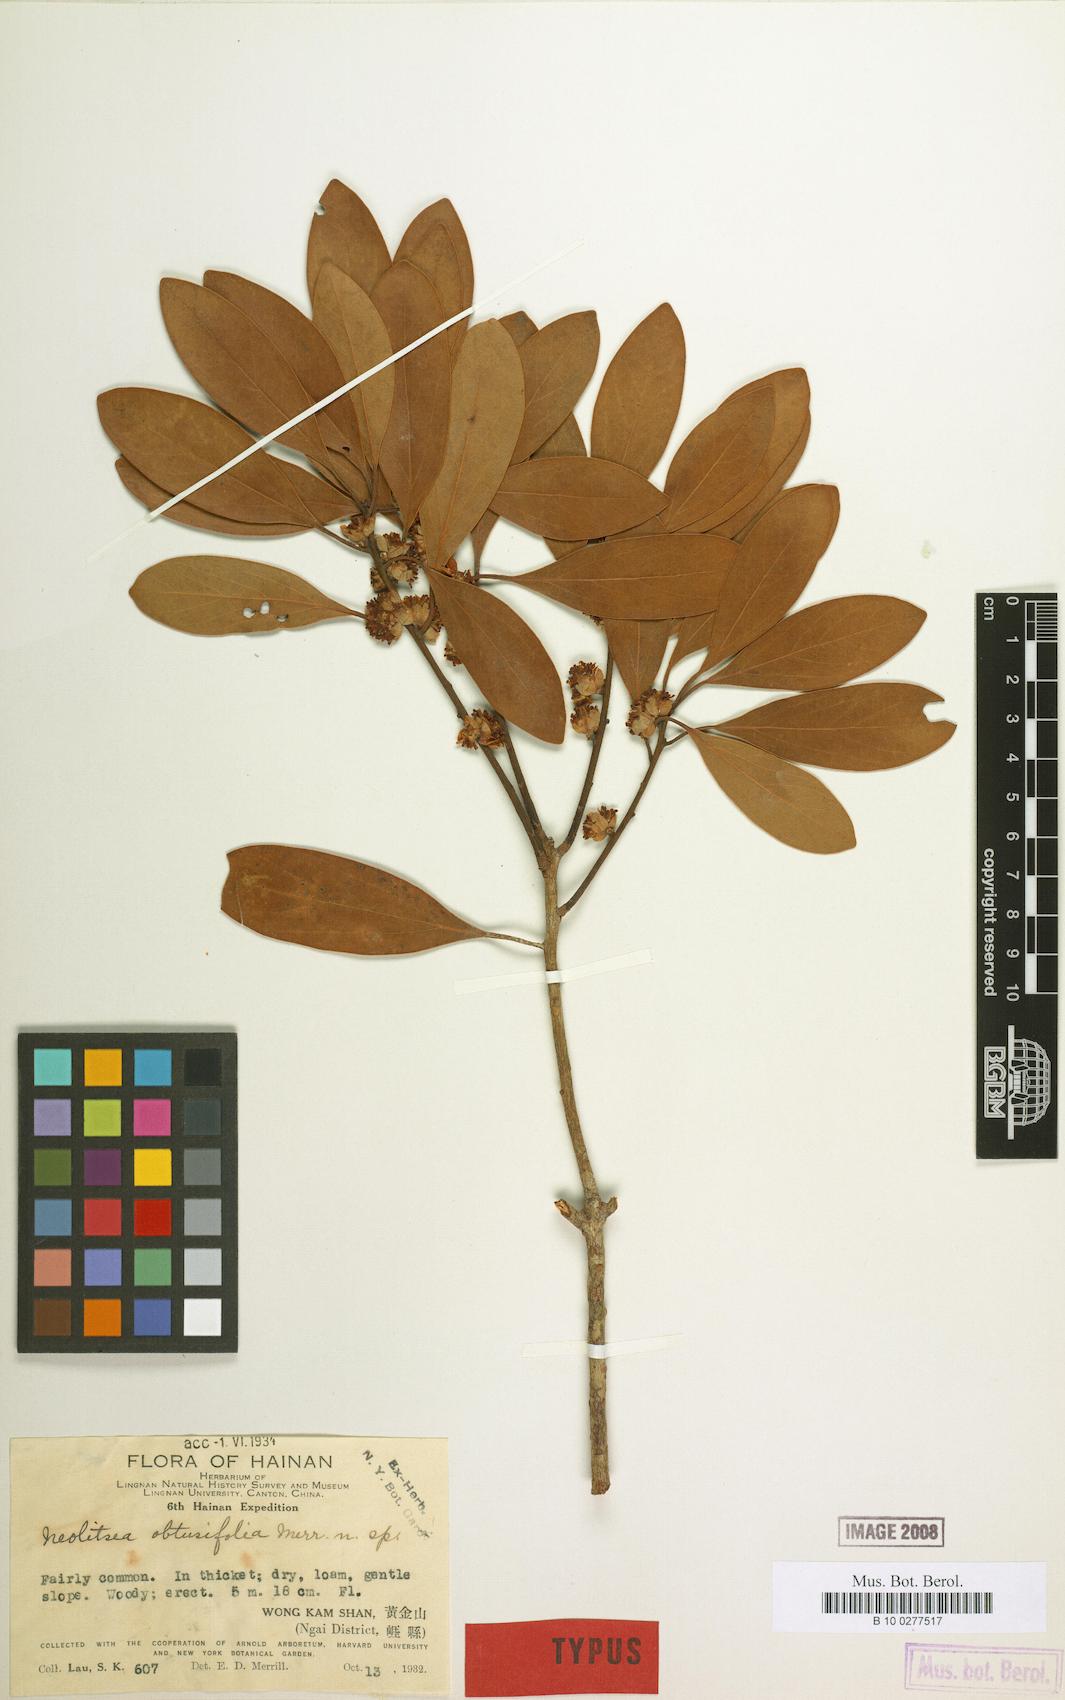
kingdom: Plantae
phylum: Tracheophyta
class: Magnoliopsida
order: Laurales
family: Lauraceae
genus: Neolitsea
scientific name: Neolitsea obtusifolia
